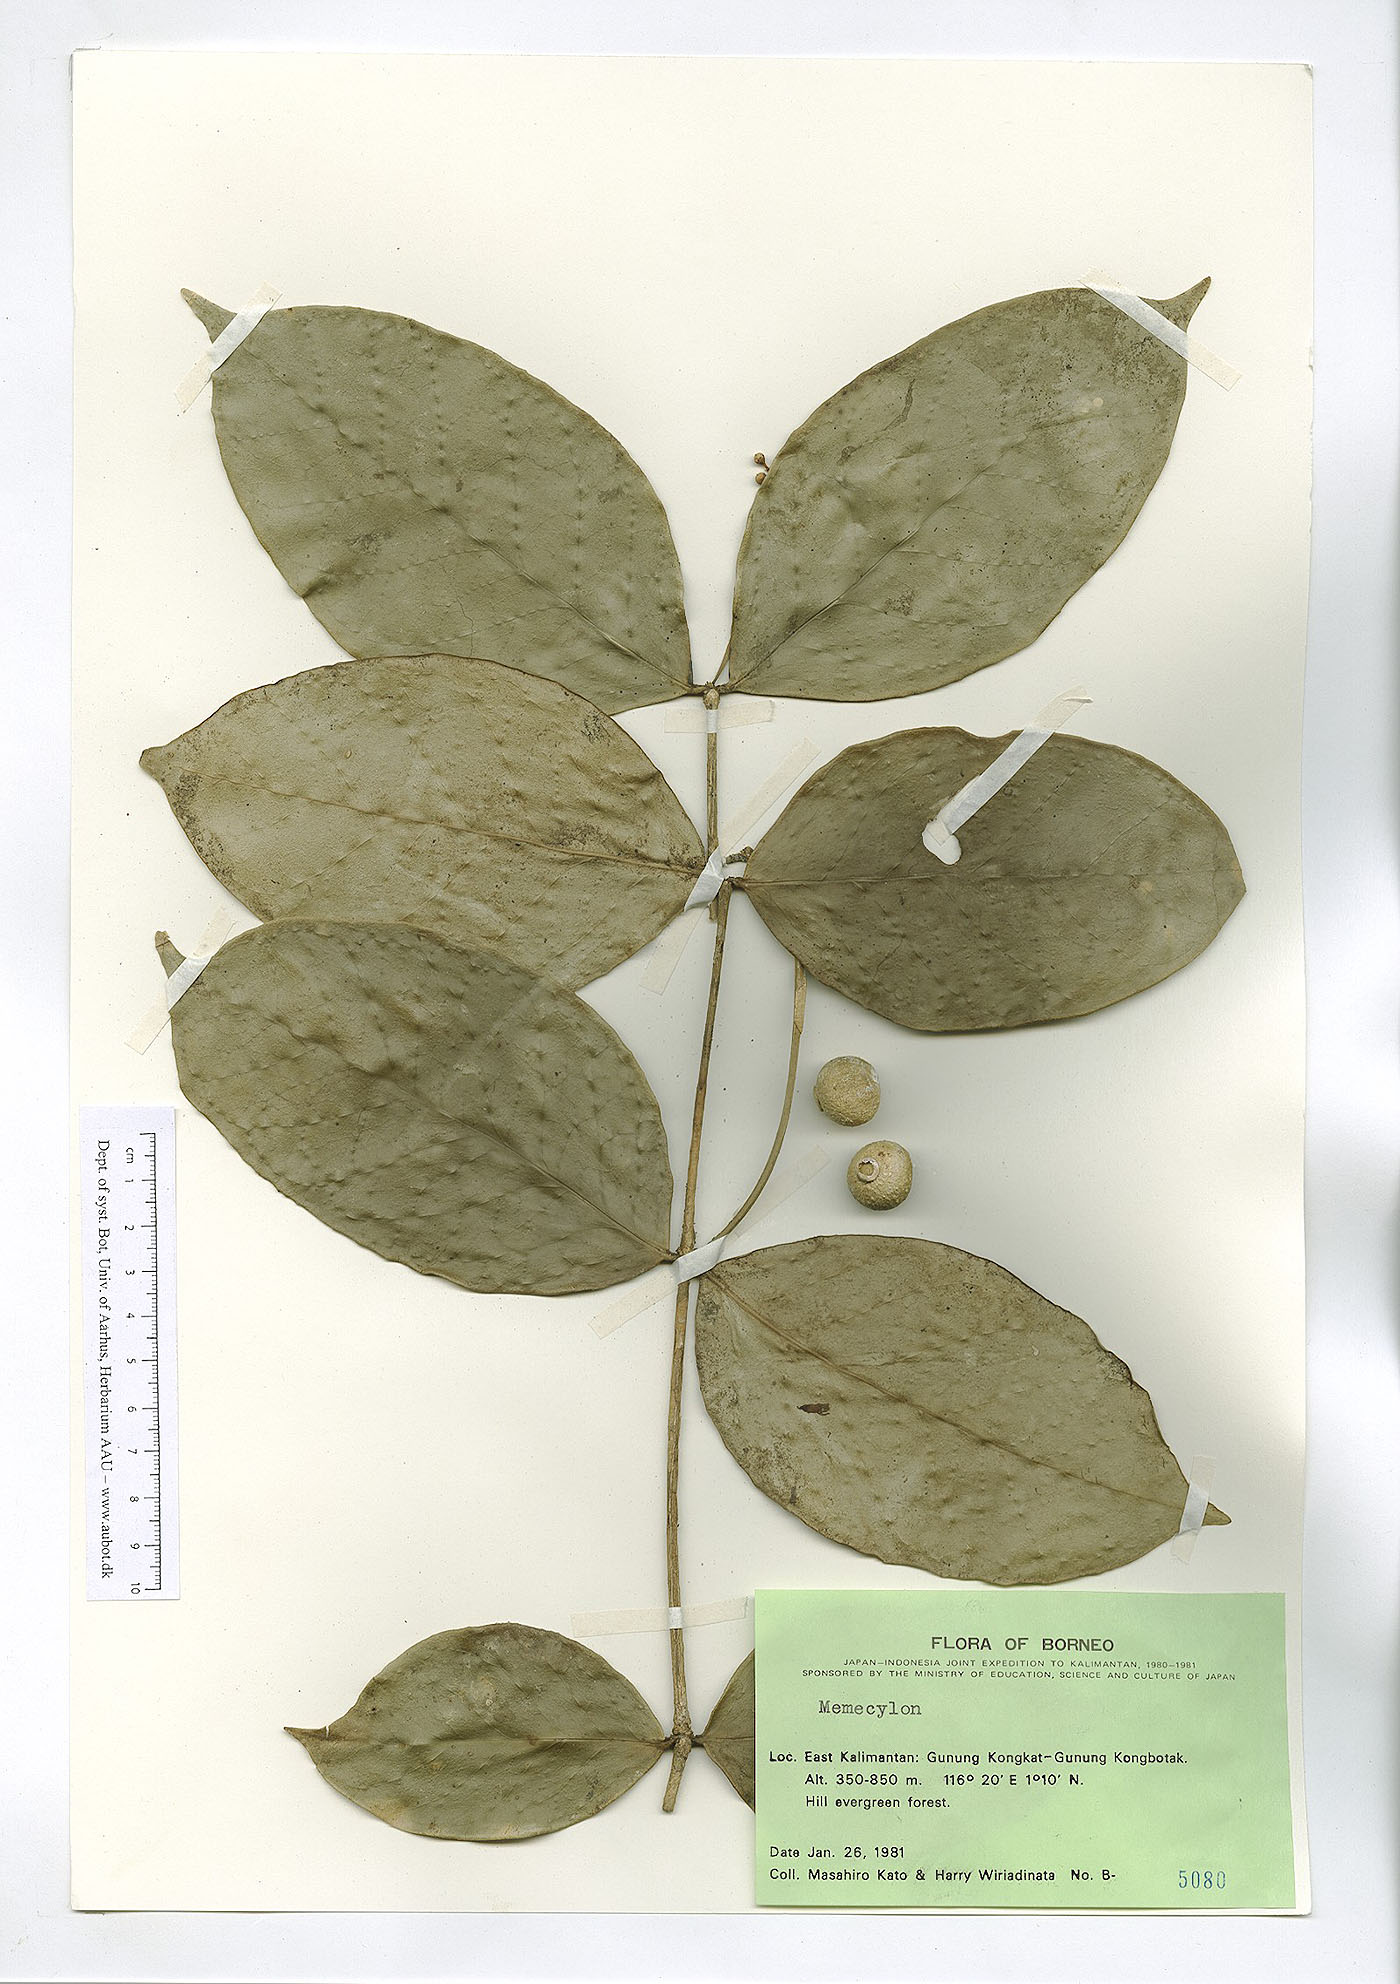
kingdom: Plantae
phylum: Tracheophyta
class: Magnoliopsida
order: Myrtales
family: Melastomataceae
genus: Memecylon
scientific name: Memecylon
